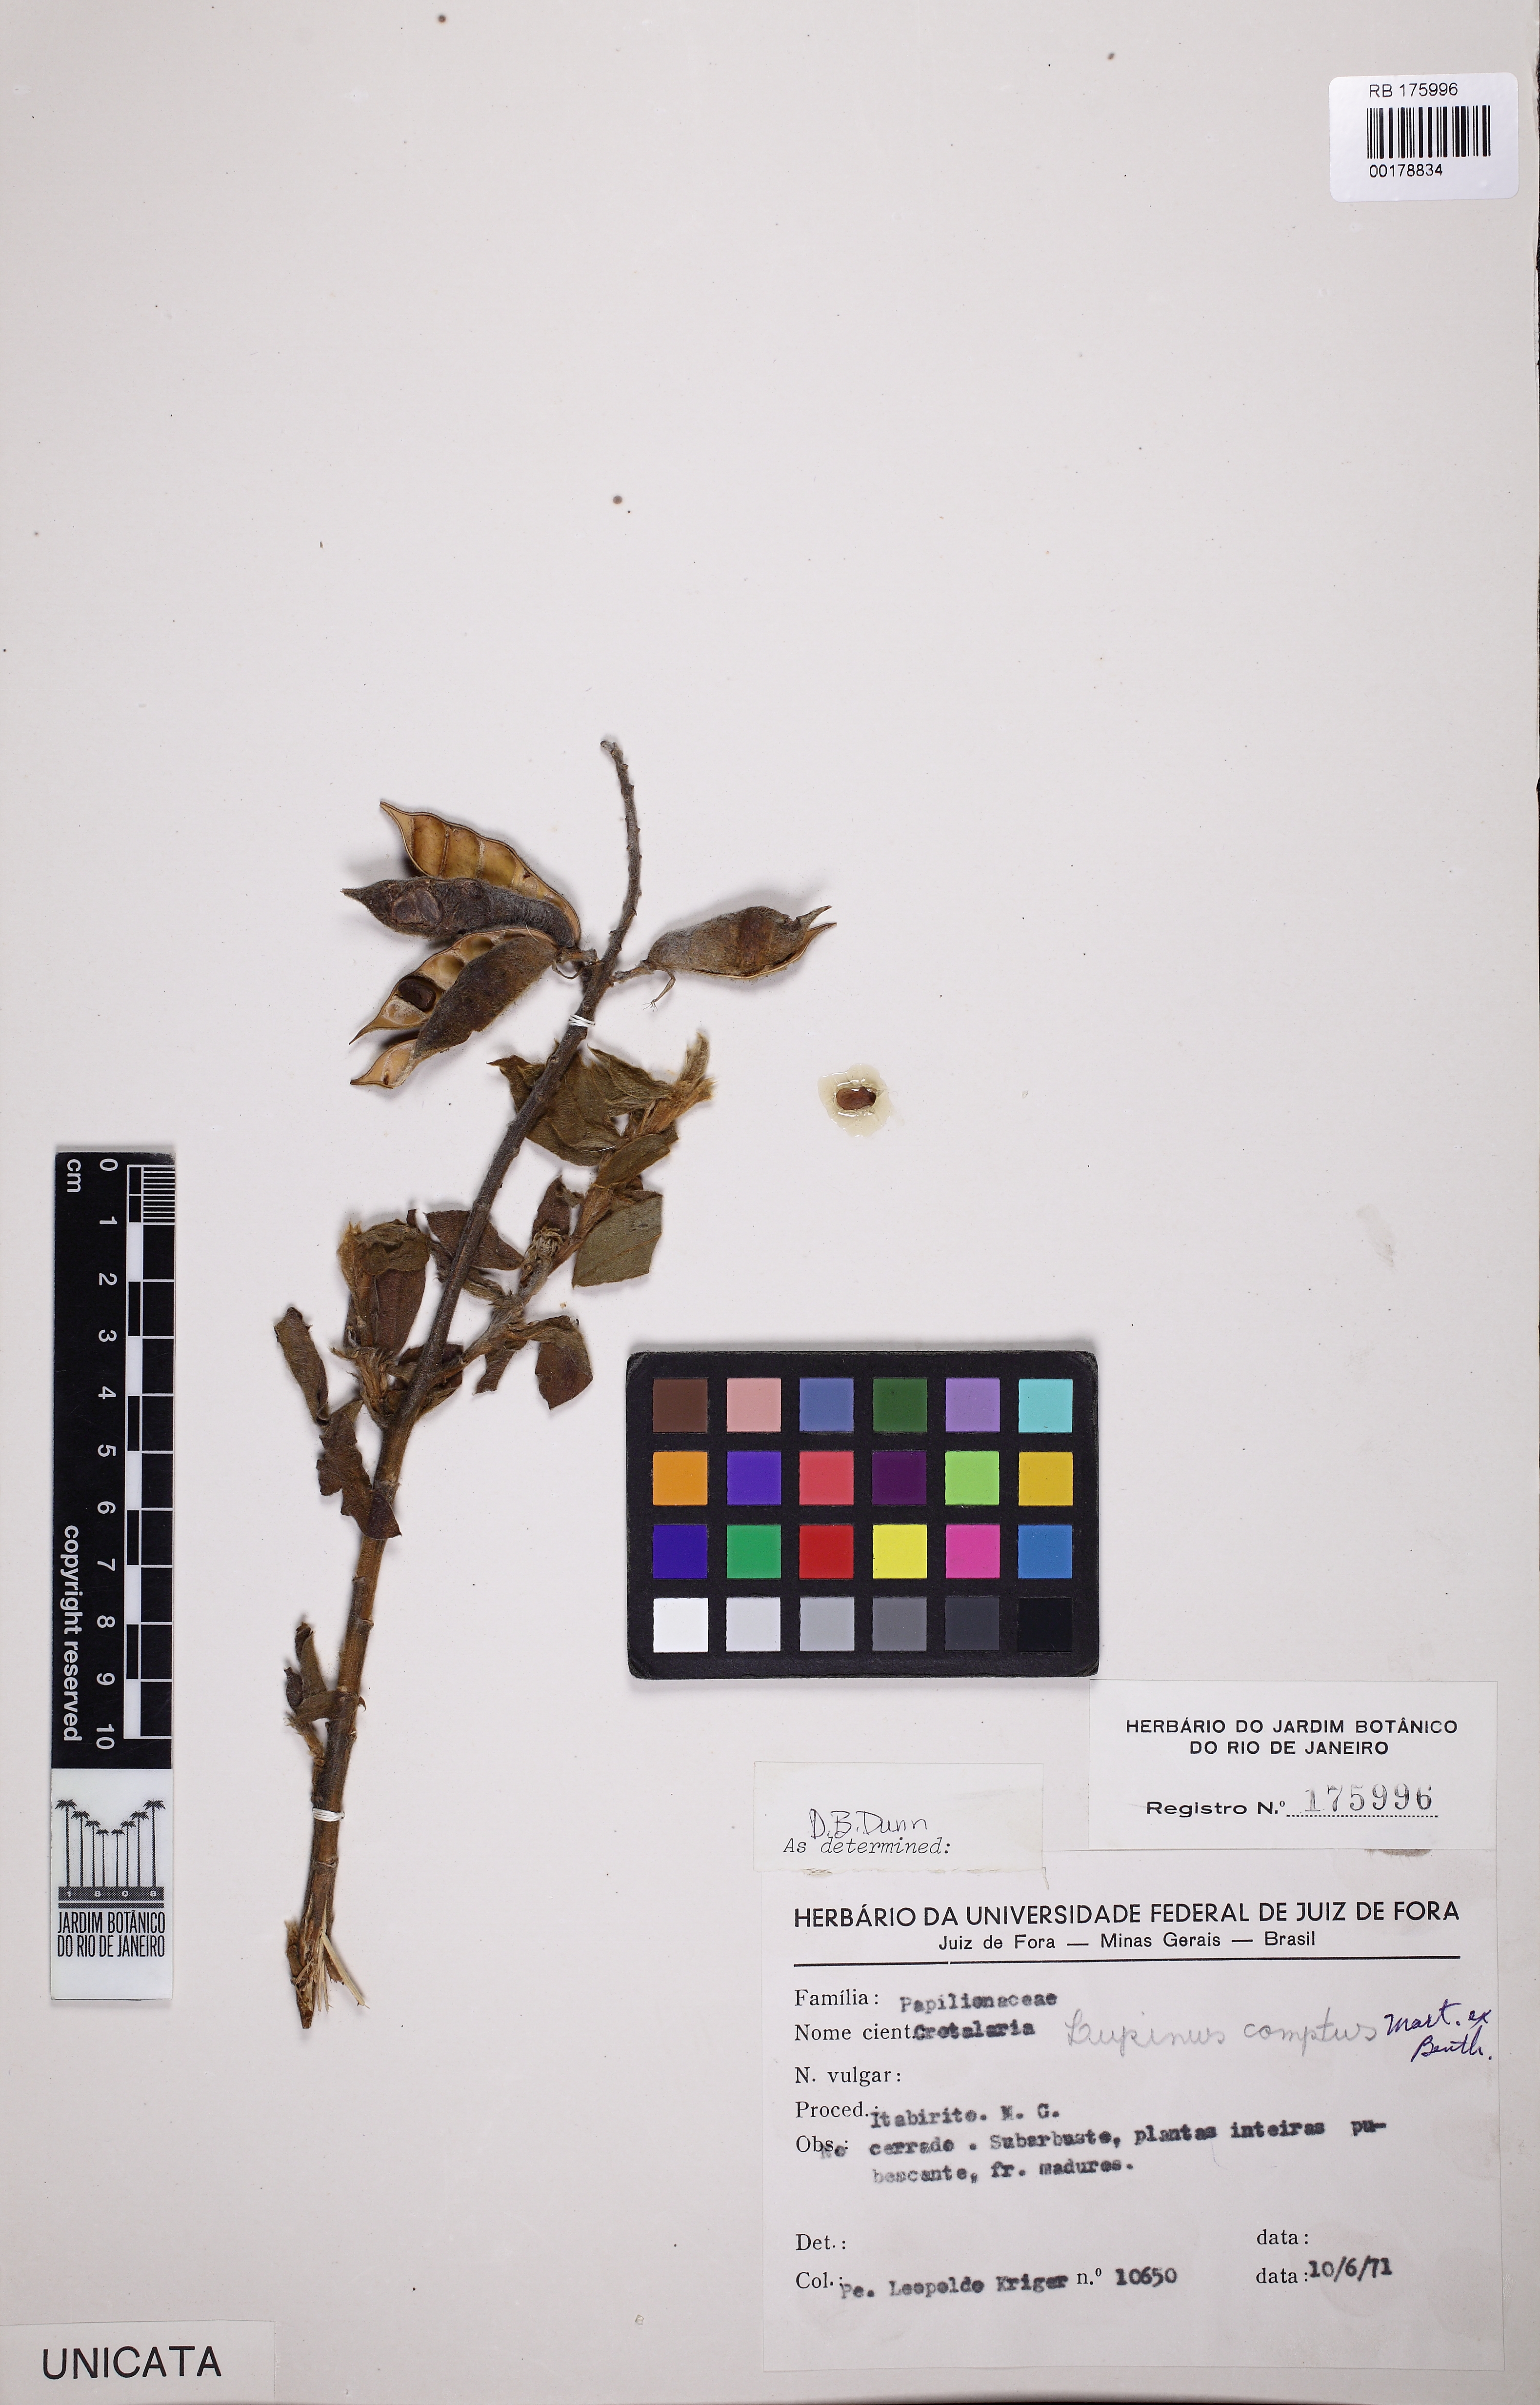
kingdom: Plantae
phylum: Tracheophyta
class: Magnoliopsida
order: Fabales
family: Fabaceae
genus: Lupinus
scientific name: Lupinus comptus
